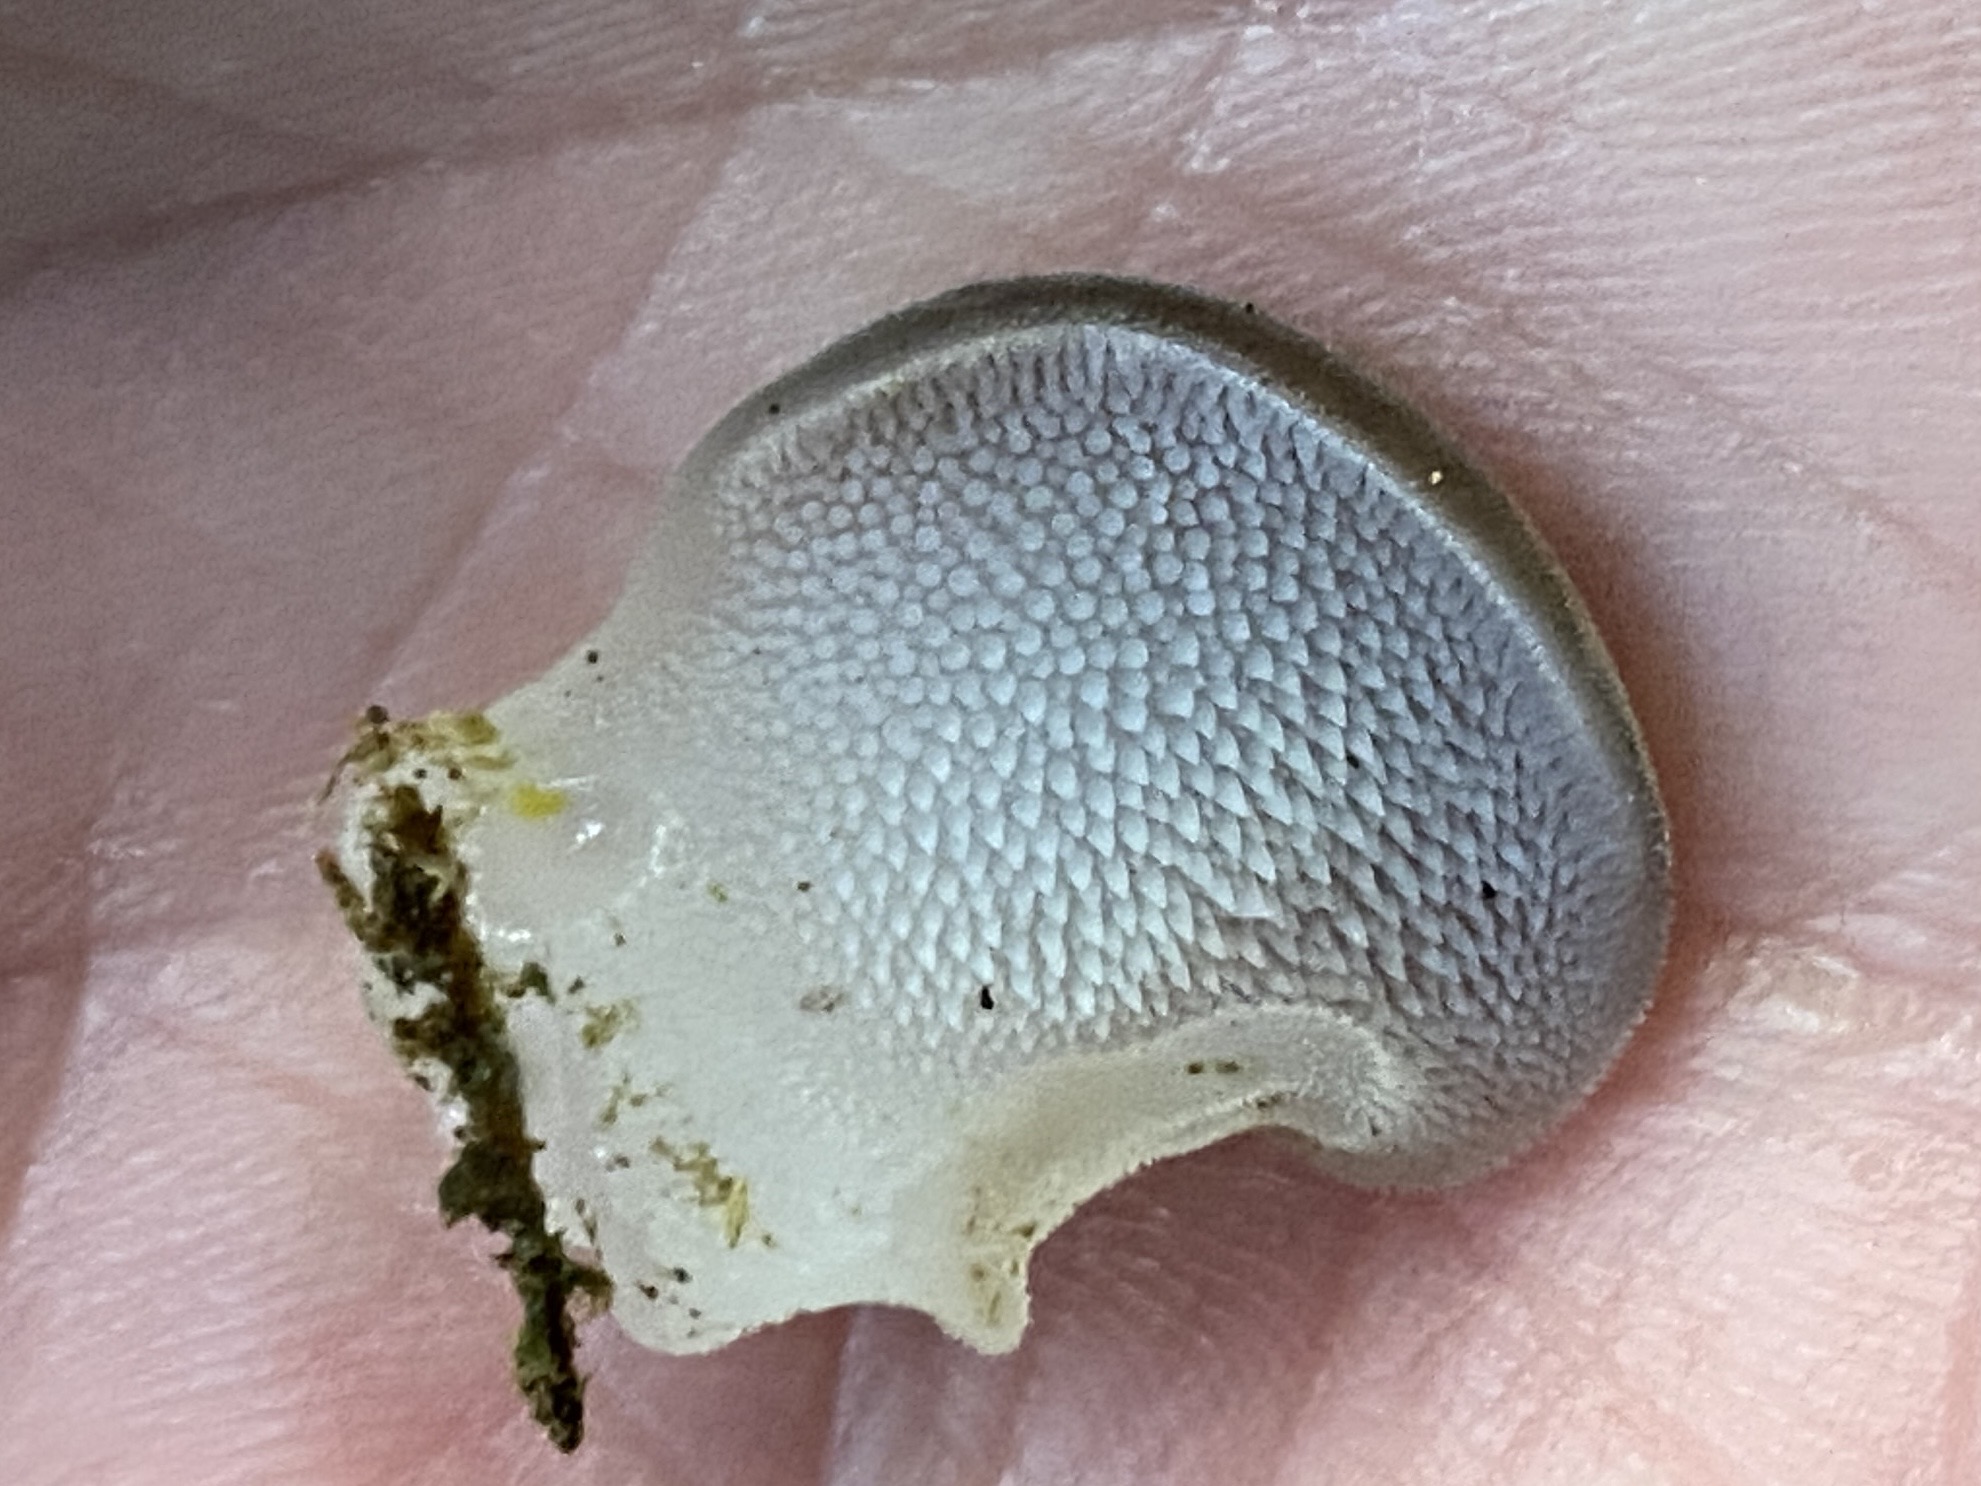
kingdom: Fungi
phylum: Basidiomycota
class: Agaricomycetes
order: Auriculariales
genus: Pseudohydnum
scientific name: Pseudohydnum gelatinosum
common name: bævretand
